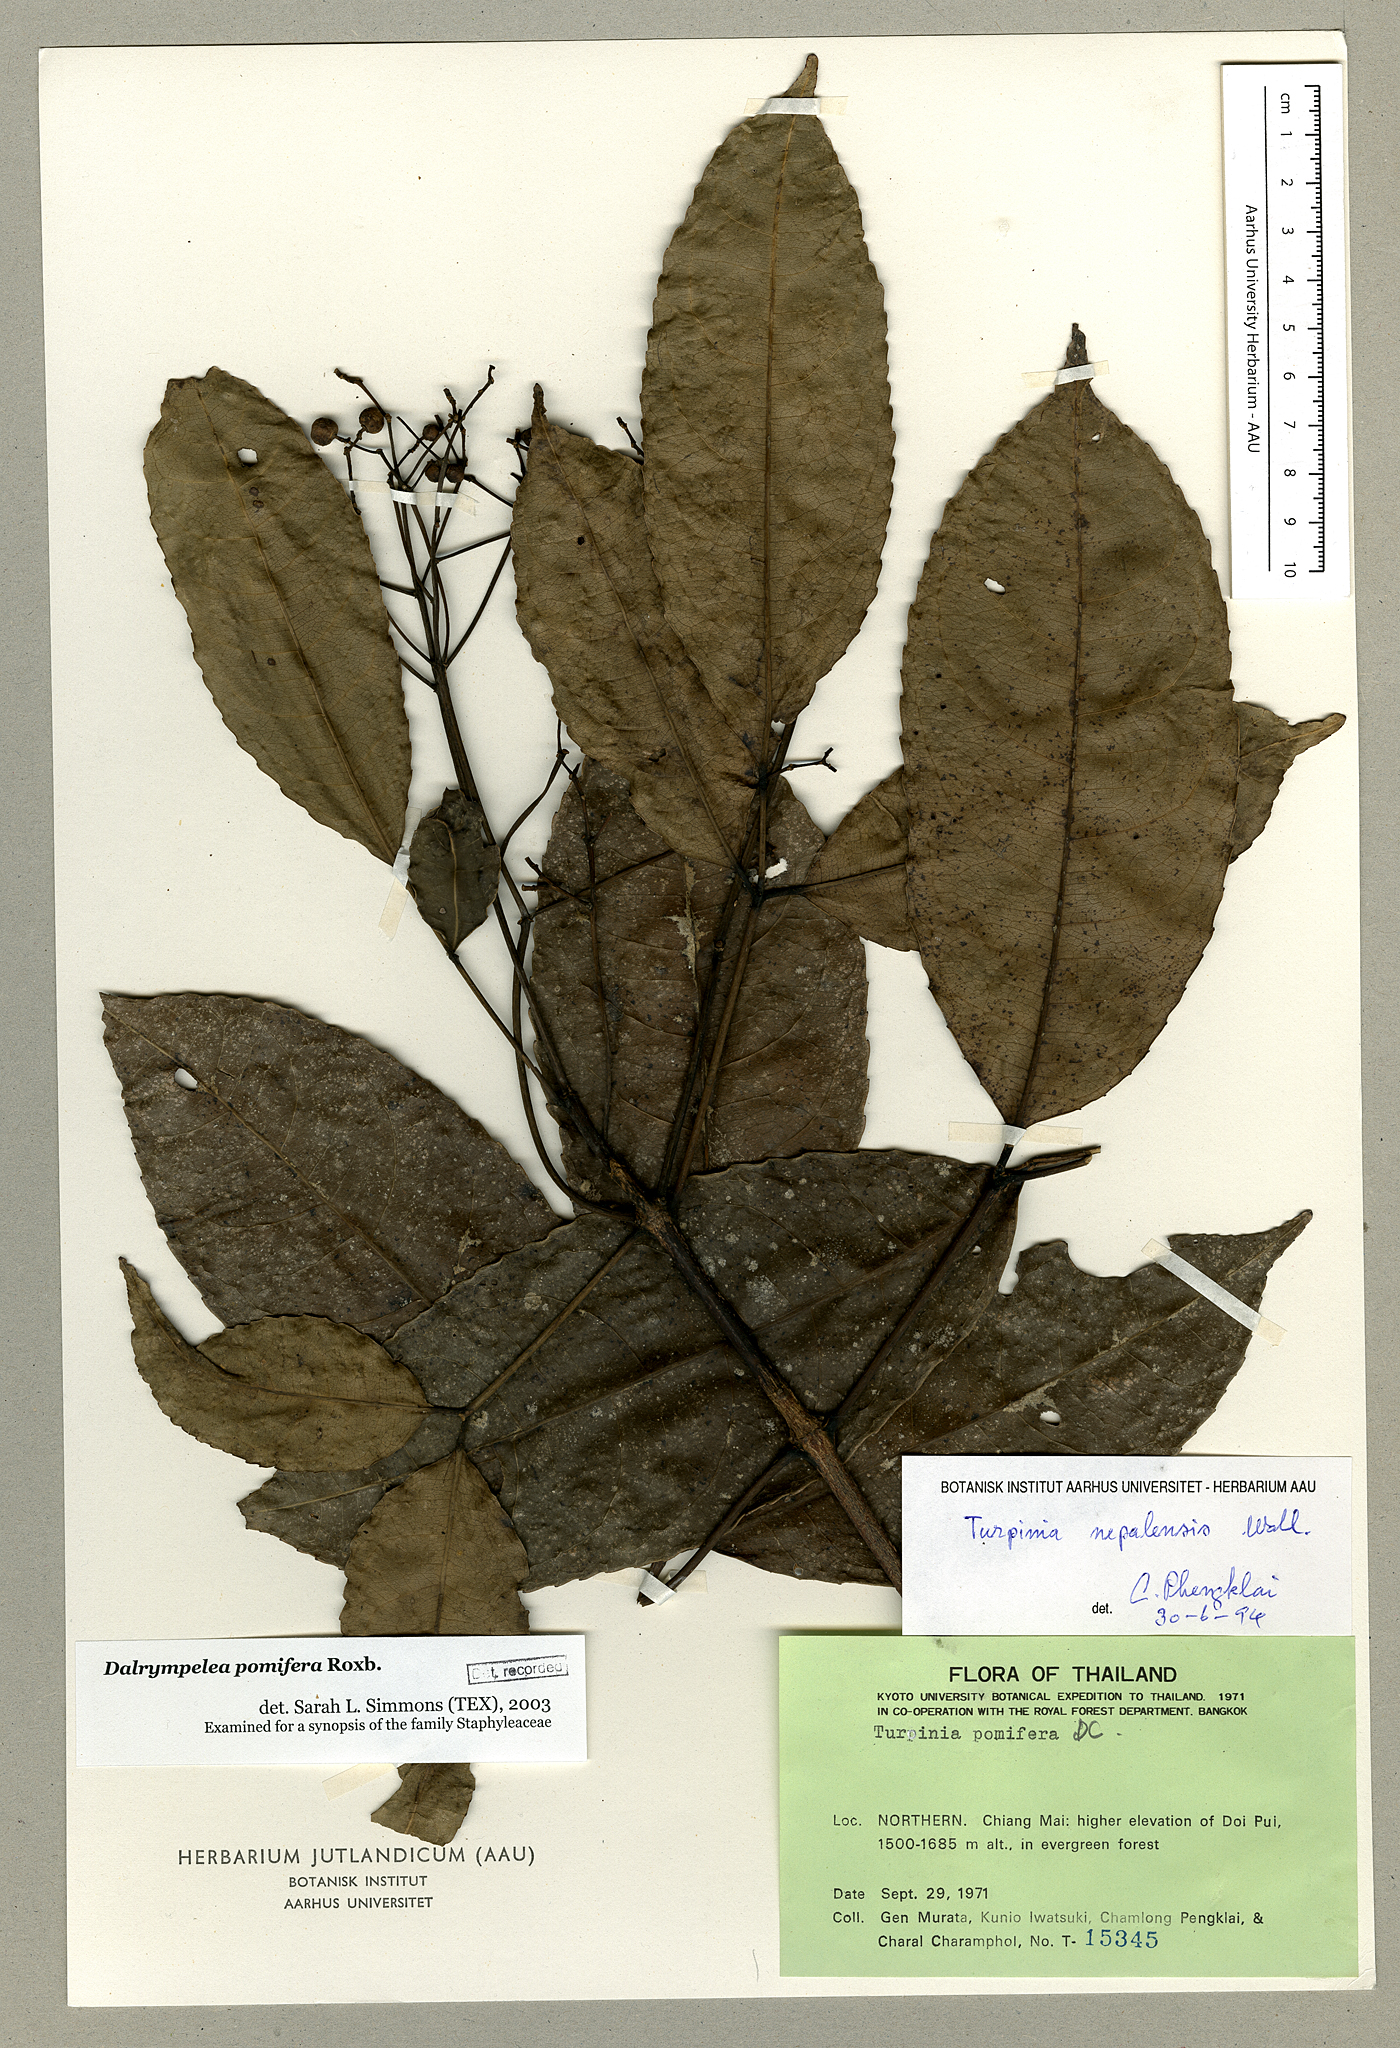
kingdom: Plantae
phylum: Tracheophyta
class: Magnoliopsida
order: Crossosomatales
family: Staphyleaceae
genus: Turpinia
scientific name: Turpinia cochinchinensis
